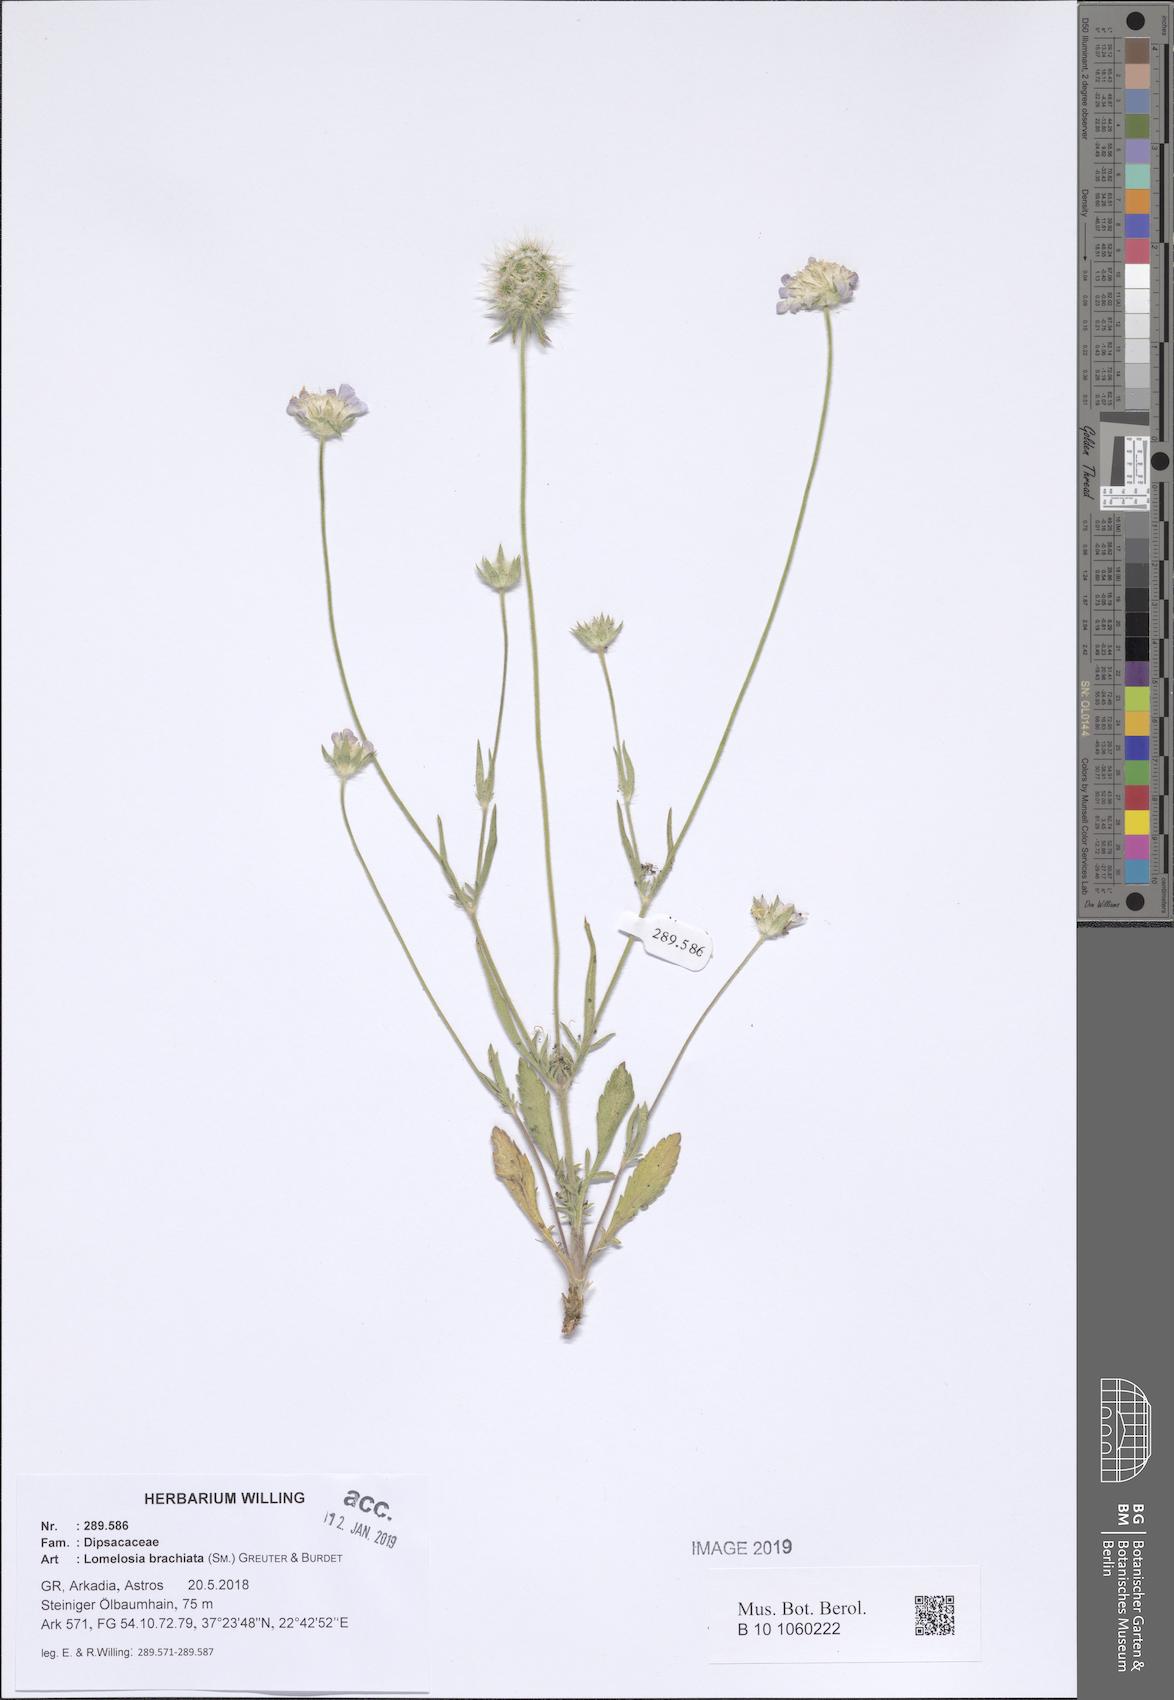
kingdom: Plantae
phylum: Tracheophyta
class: Magnoliopsida
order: Dipsacales
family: Caprifoliaceae
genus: Lomelosia
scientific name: Lomelosia brachiata
